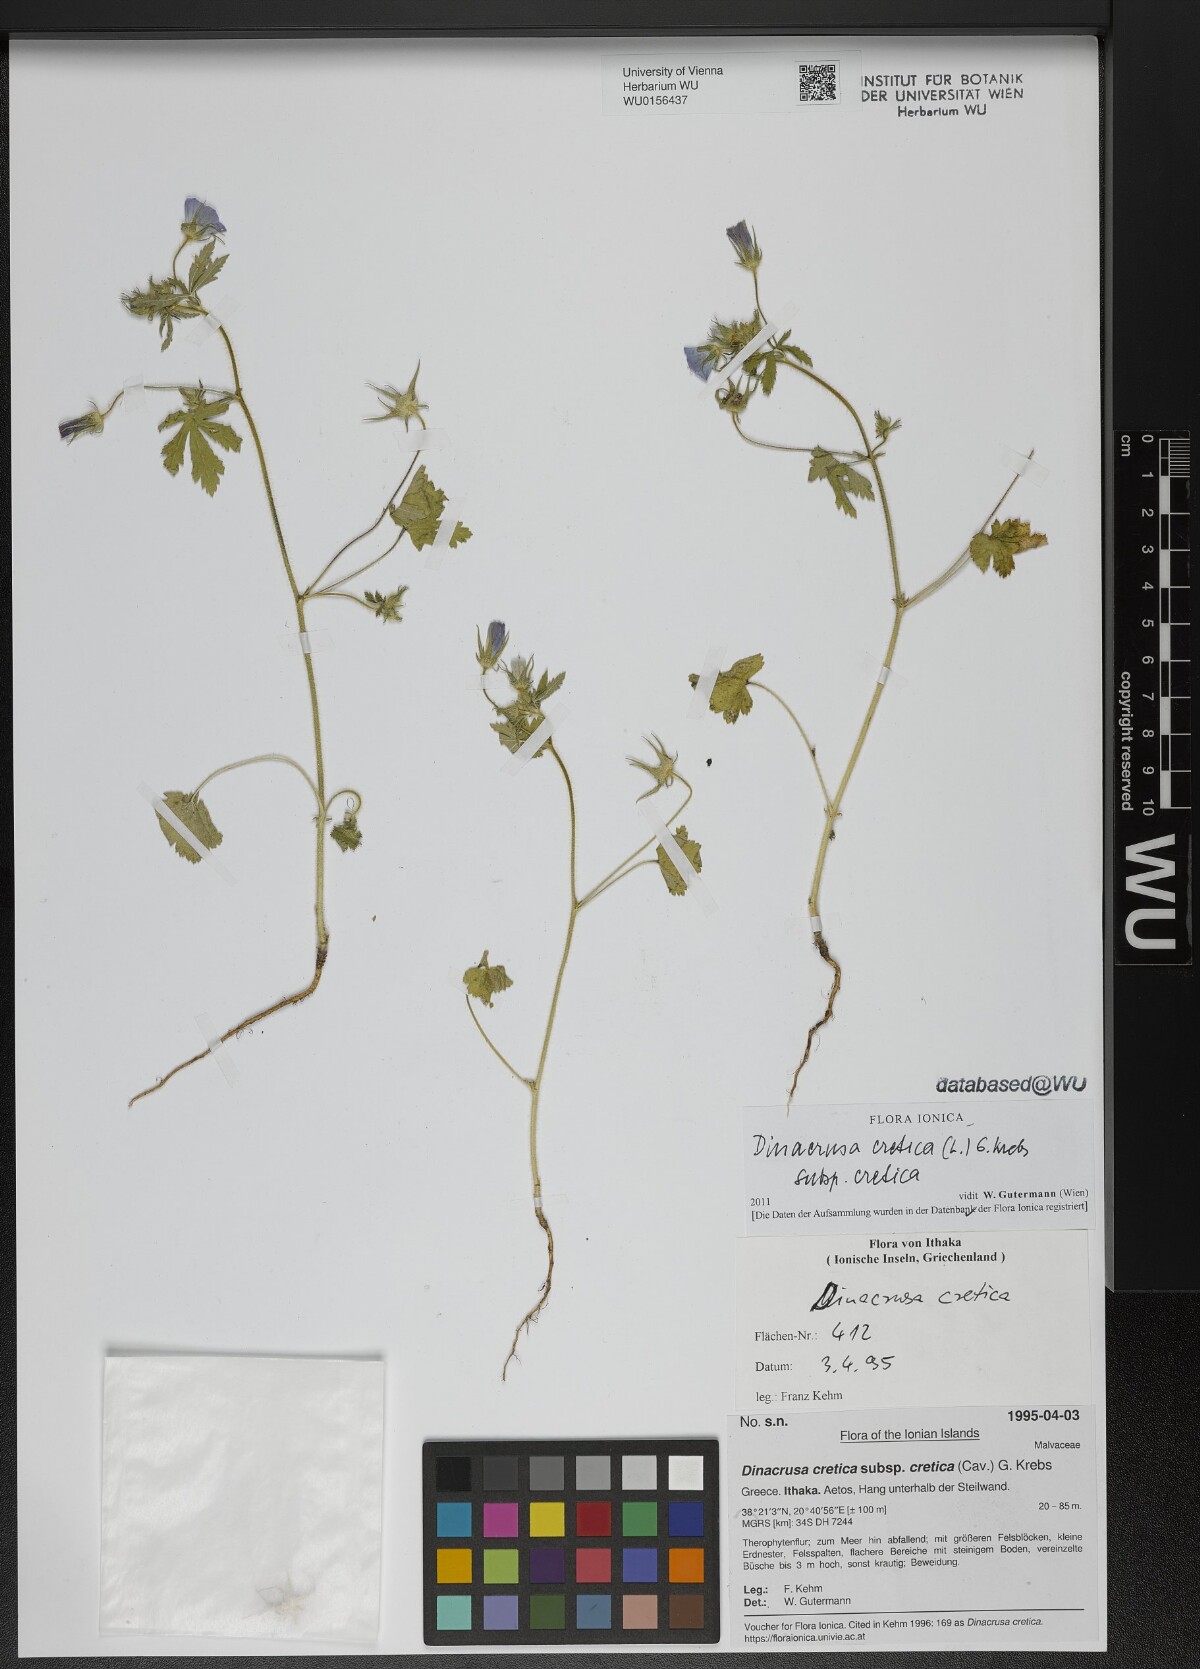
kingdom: Plantae
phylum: Tracheophyta
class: Magnoliopsida
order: Malvales
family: Malvaceae
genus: Malva
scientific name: Malva cretica
